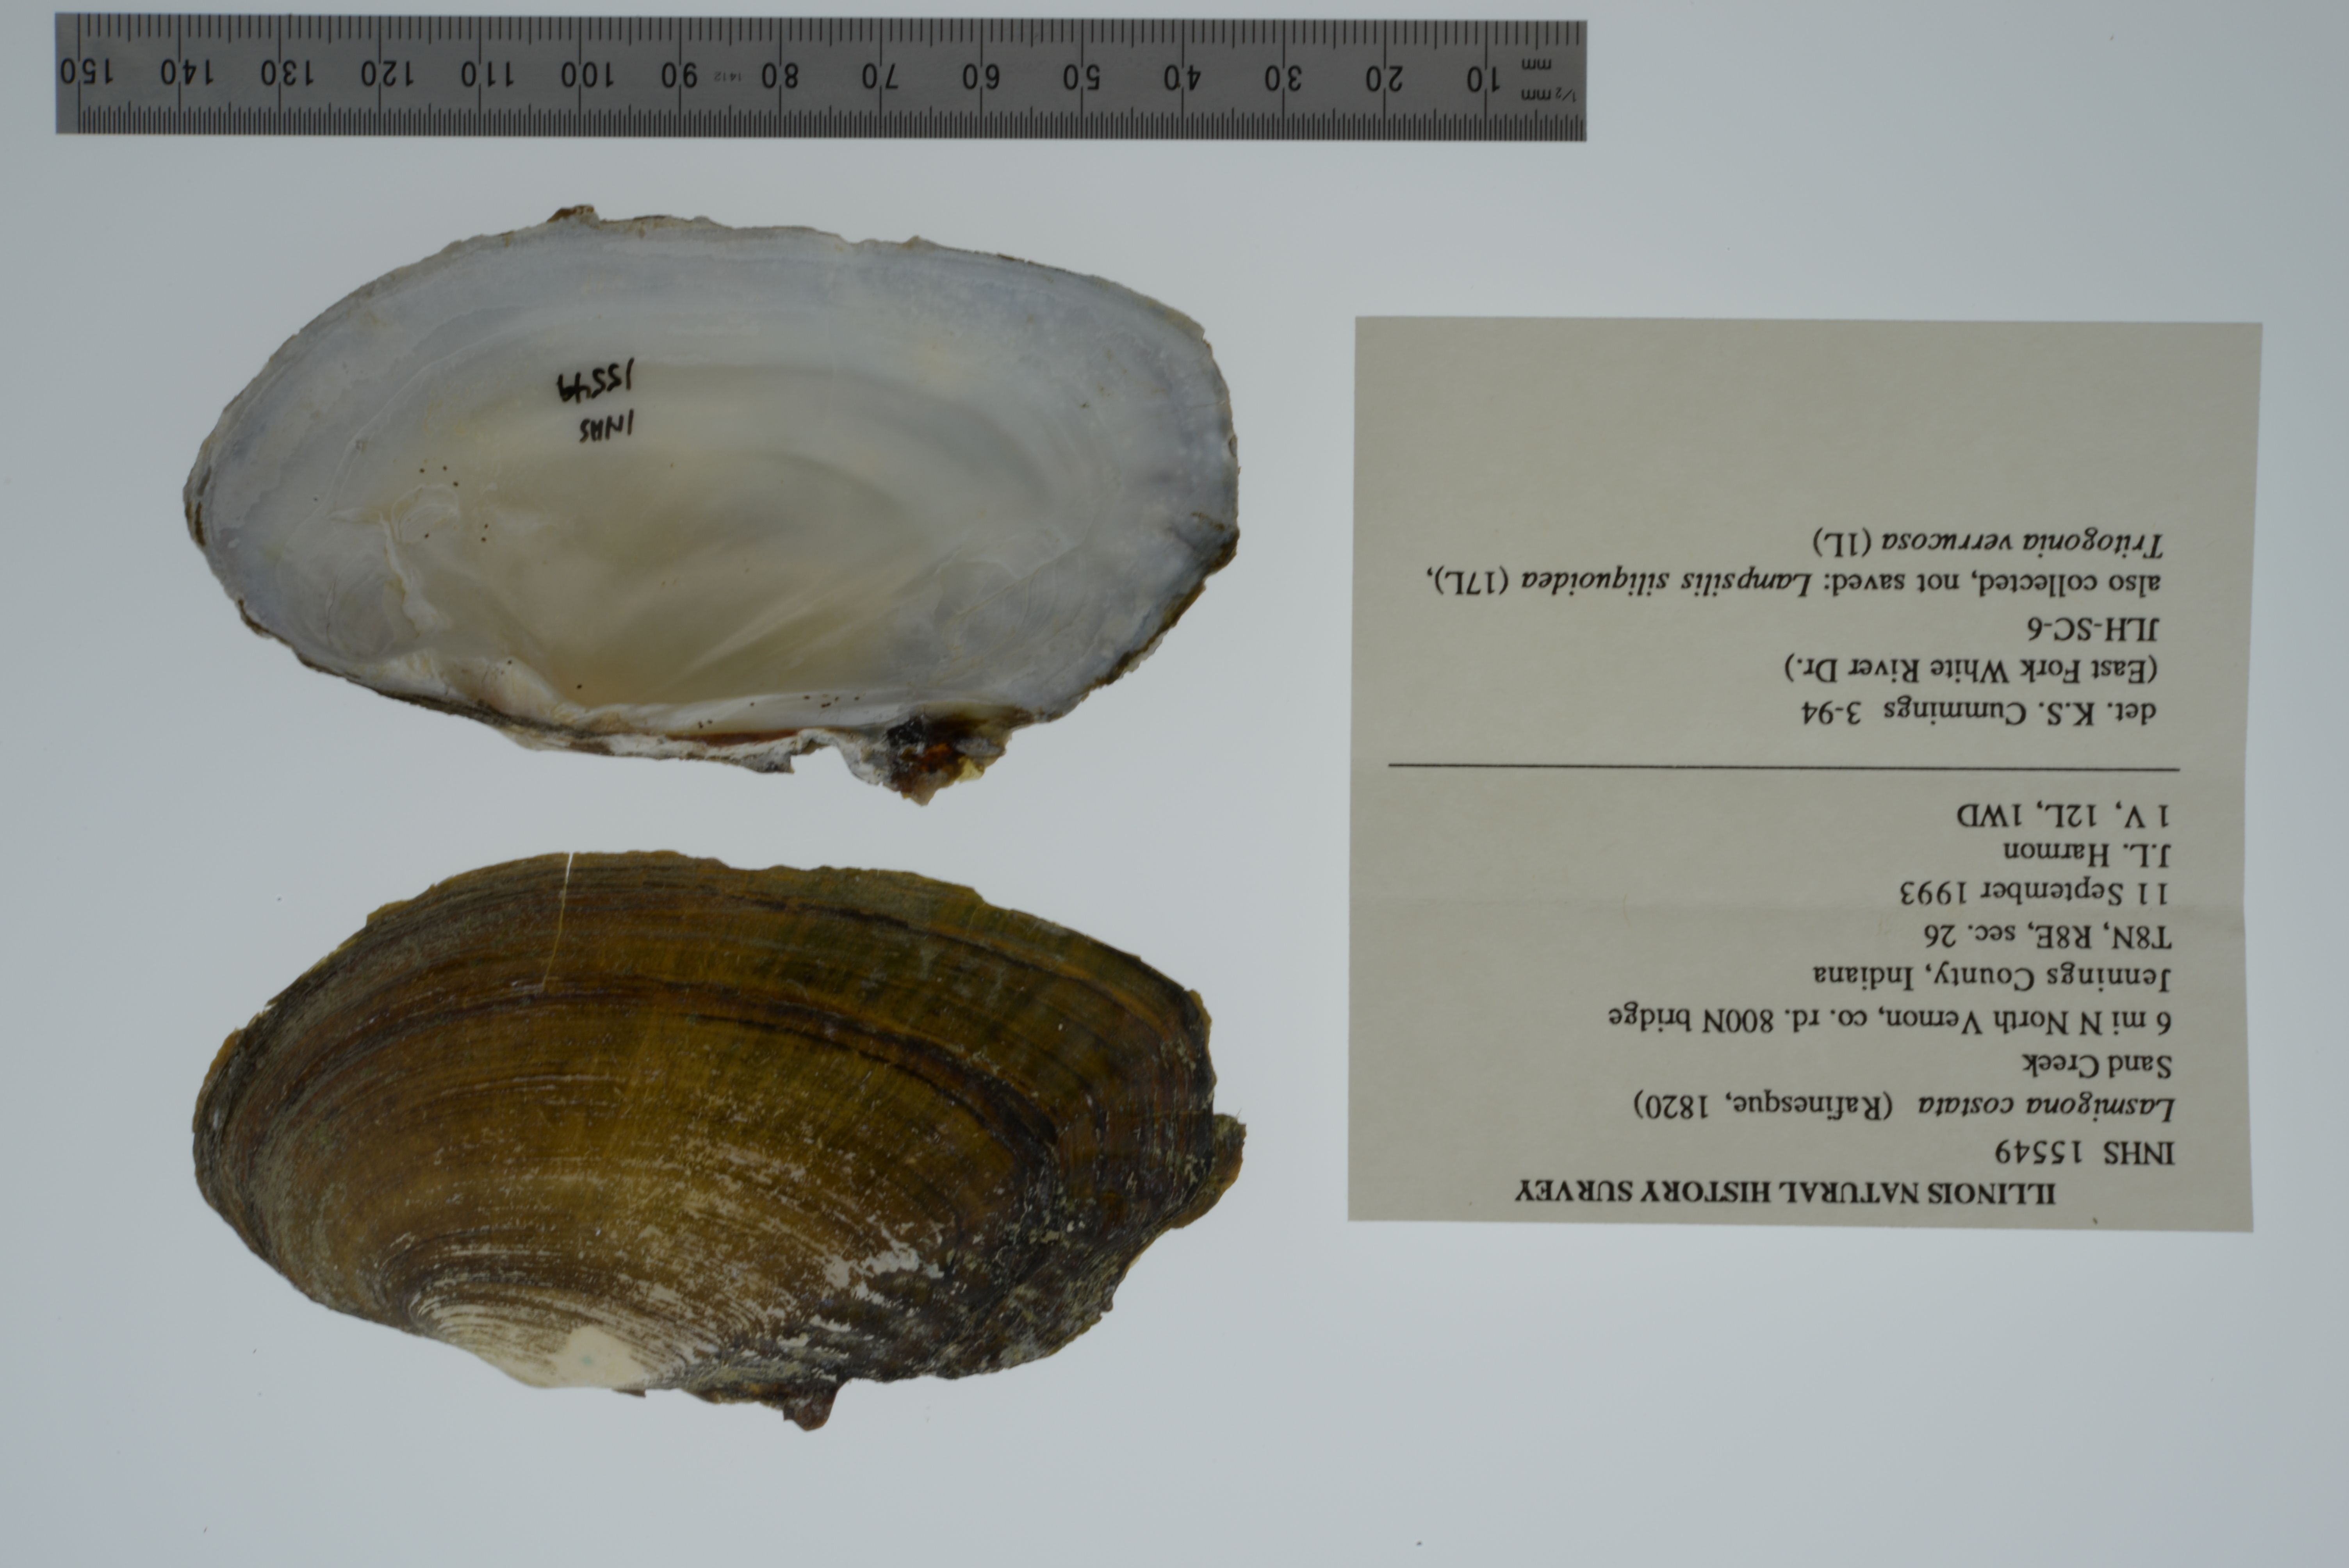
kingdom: Animalia
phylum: Mollusca
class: Bivalvia
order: Unionida
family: Unionidae
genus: Lasmigona
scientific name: Lasmigona costata
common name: Flutedshell
